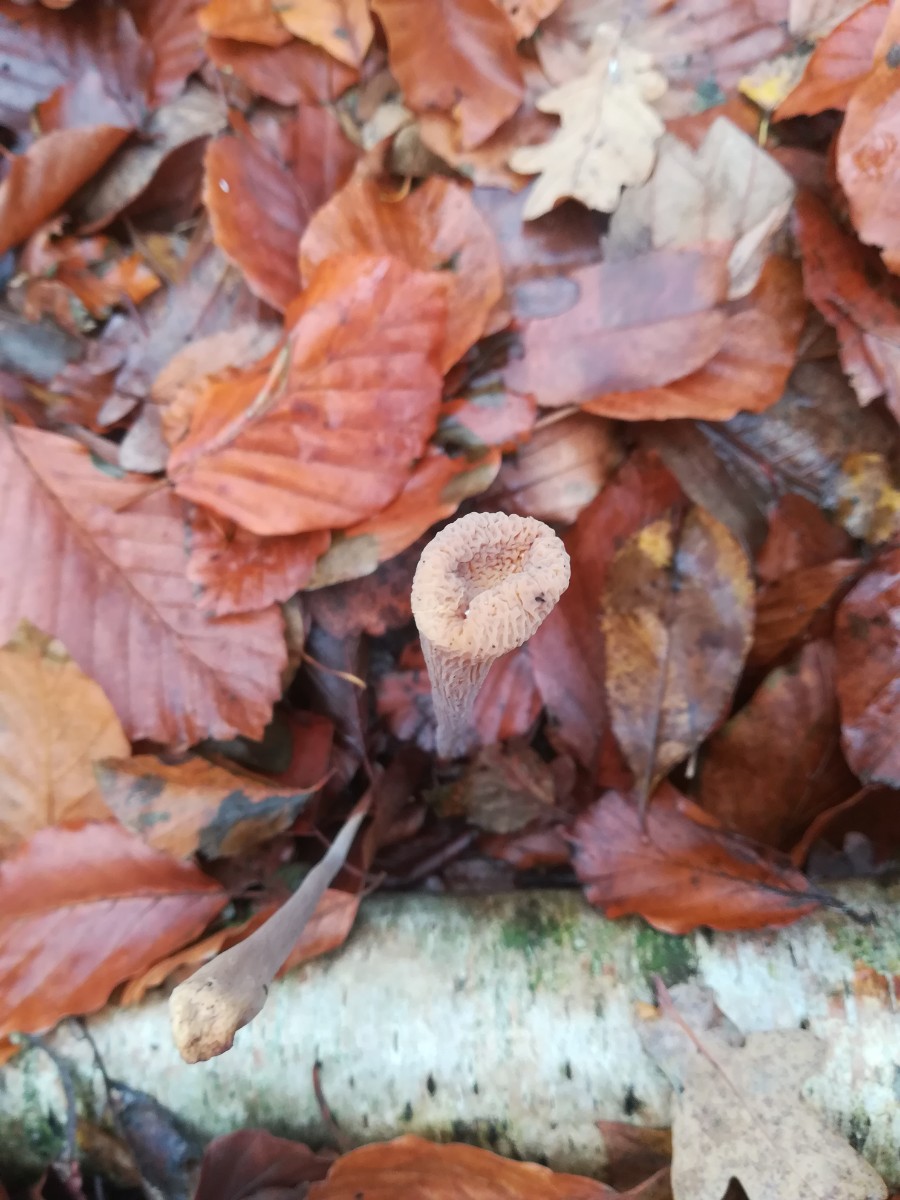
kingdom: Fungi
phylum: Basidiomycota
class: Agaricomycetes
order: Agaricales
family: Typhulaceae
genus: Typhula
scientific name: Typhula fistulosa
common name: pibet rørkølle
